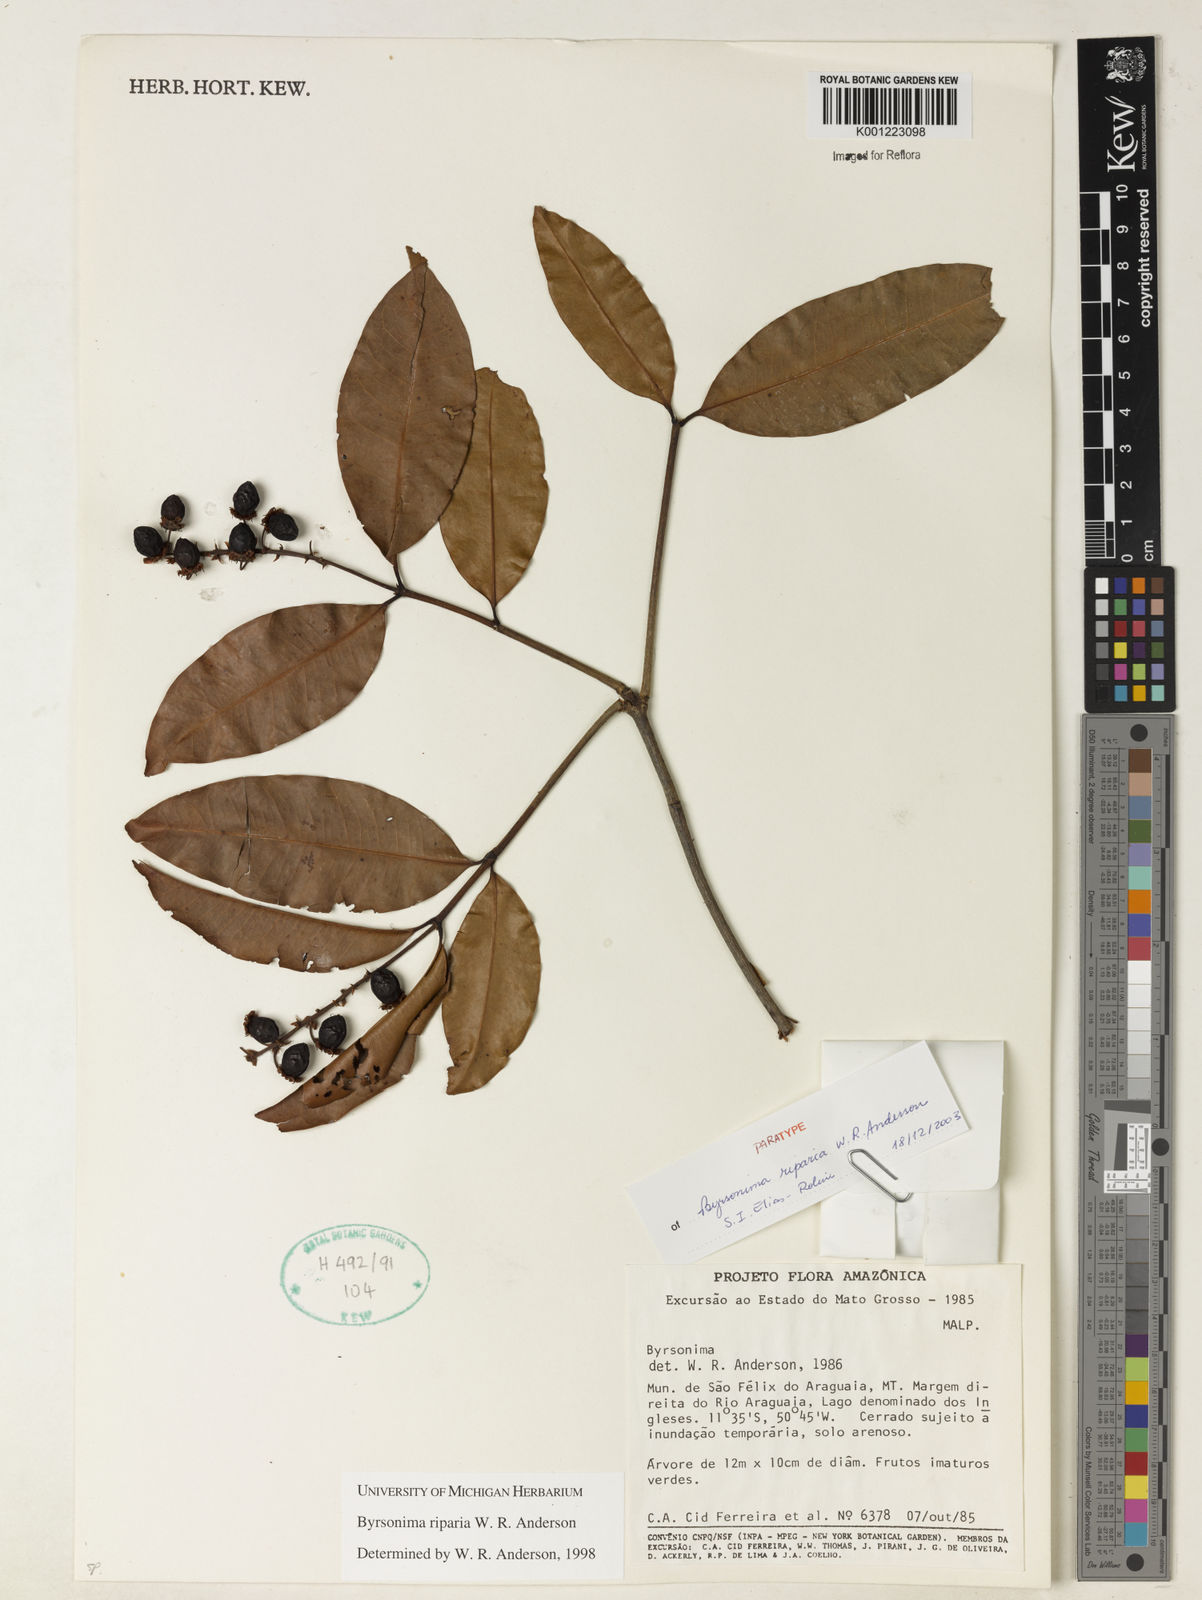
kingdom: Plantae
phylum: Tracheophyta
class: Magnoliopsida
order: Malpighiales
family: Malpighiaceae
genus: Byrsonima
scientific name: Byrsonima riparia
